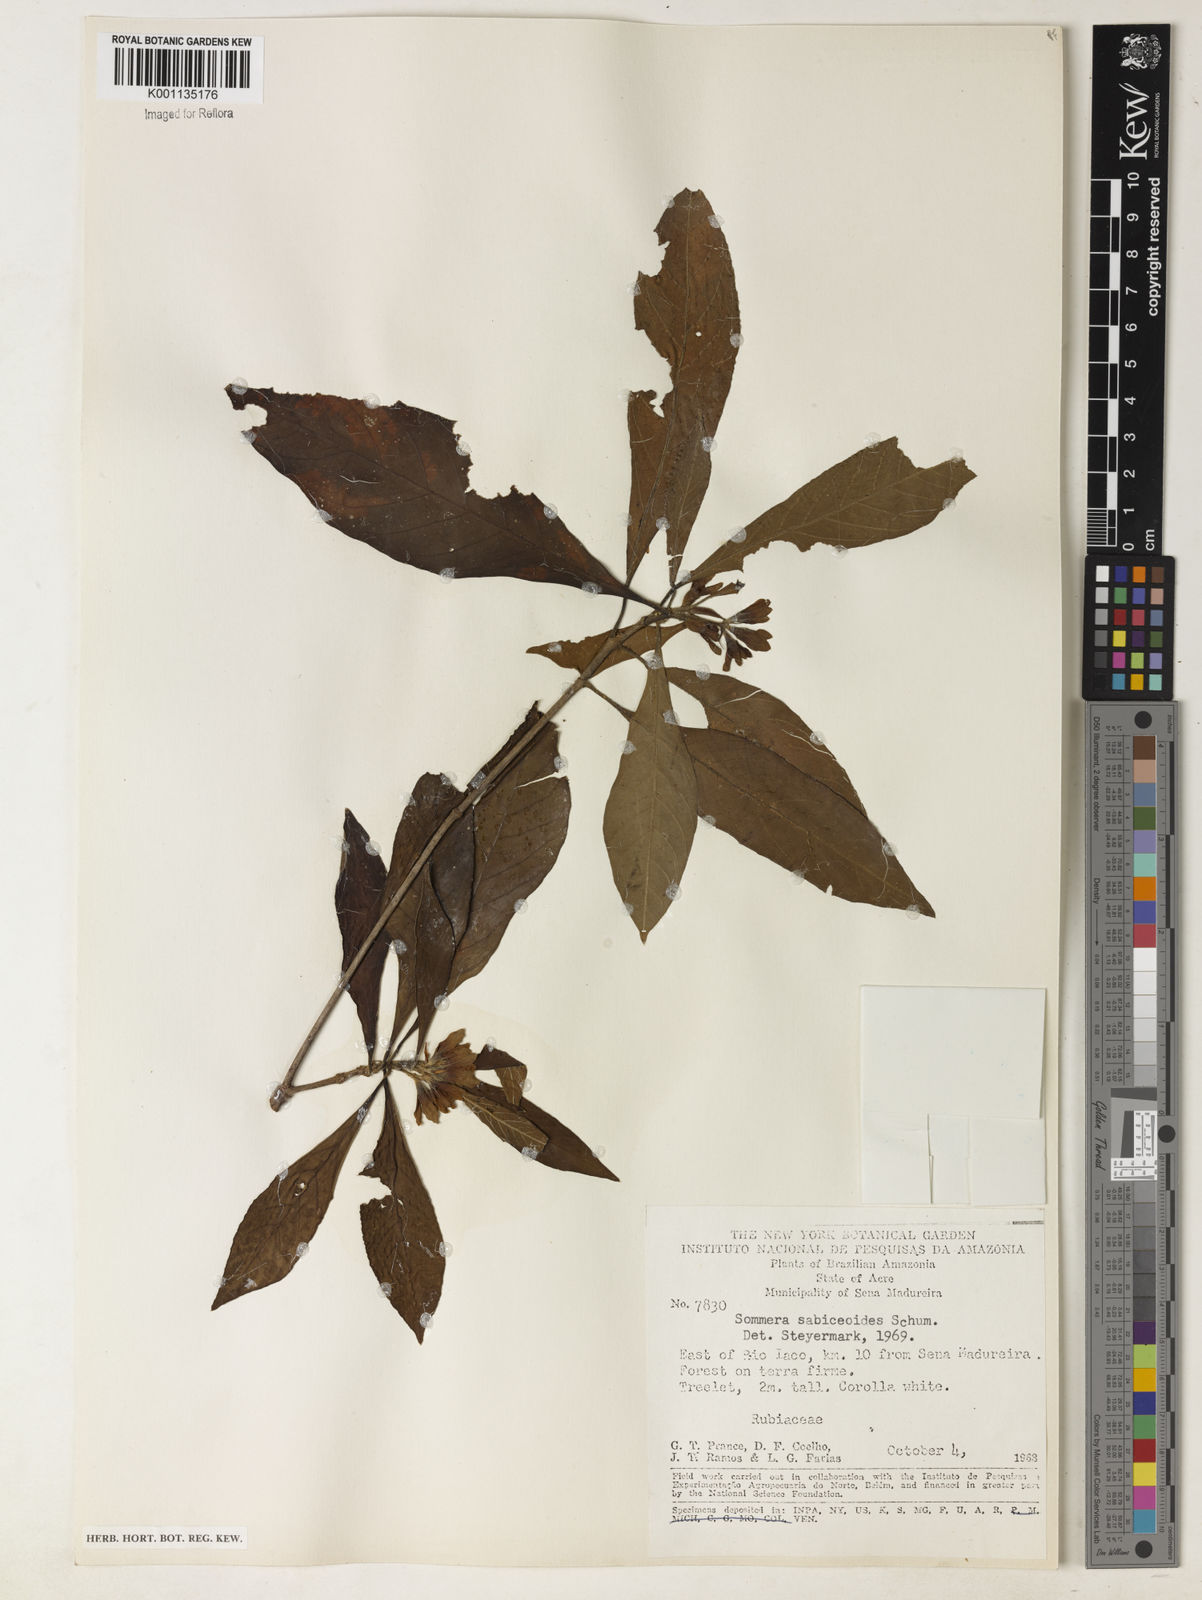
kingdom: Plantae
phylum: Tracheophyta
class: Magnoliopsida
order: Gentianales
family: Rubiaceae
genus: Sommera
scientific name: Sommera sabiceoides
